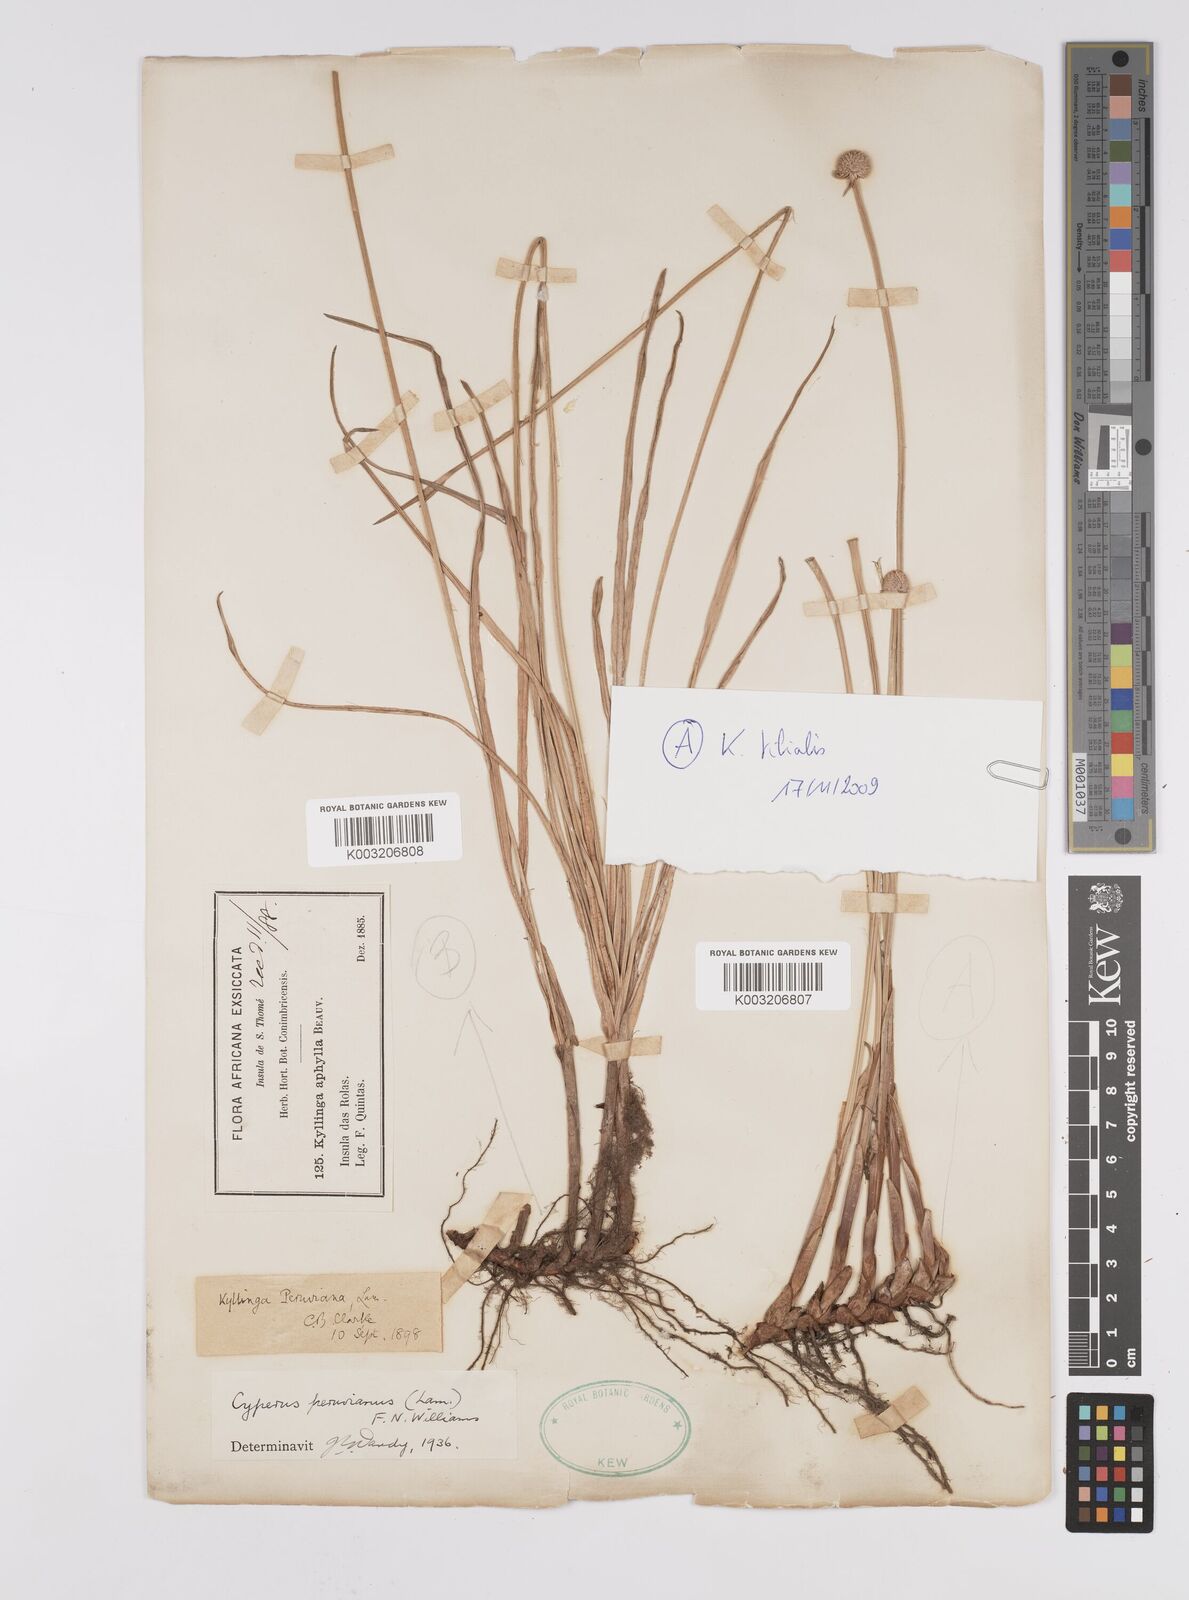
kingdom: Plantae
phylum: Tracheophyta
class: Liliopsida
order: Poales
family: Cyperaceae
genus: Cyperus
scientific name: Cyperus
